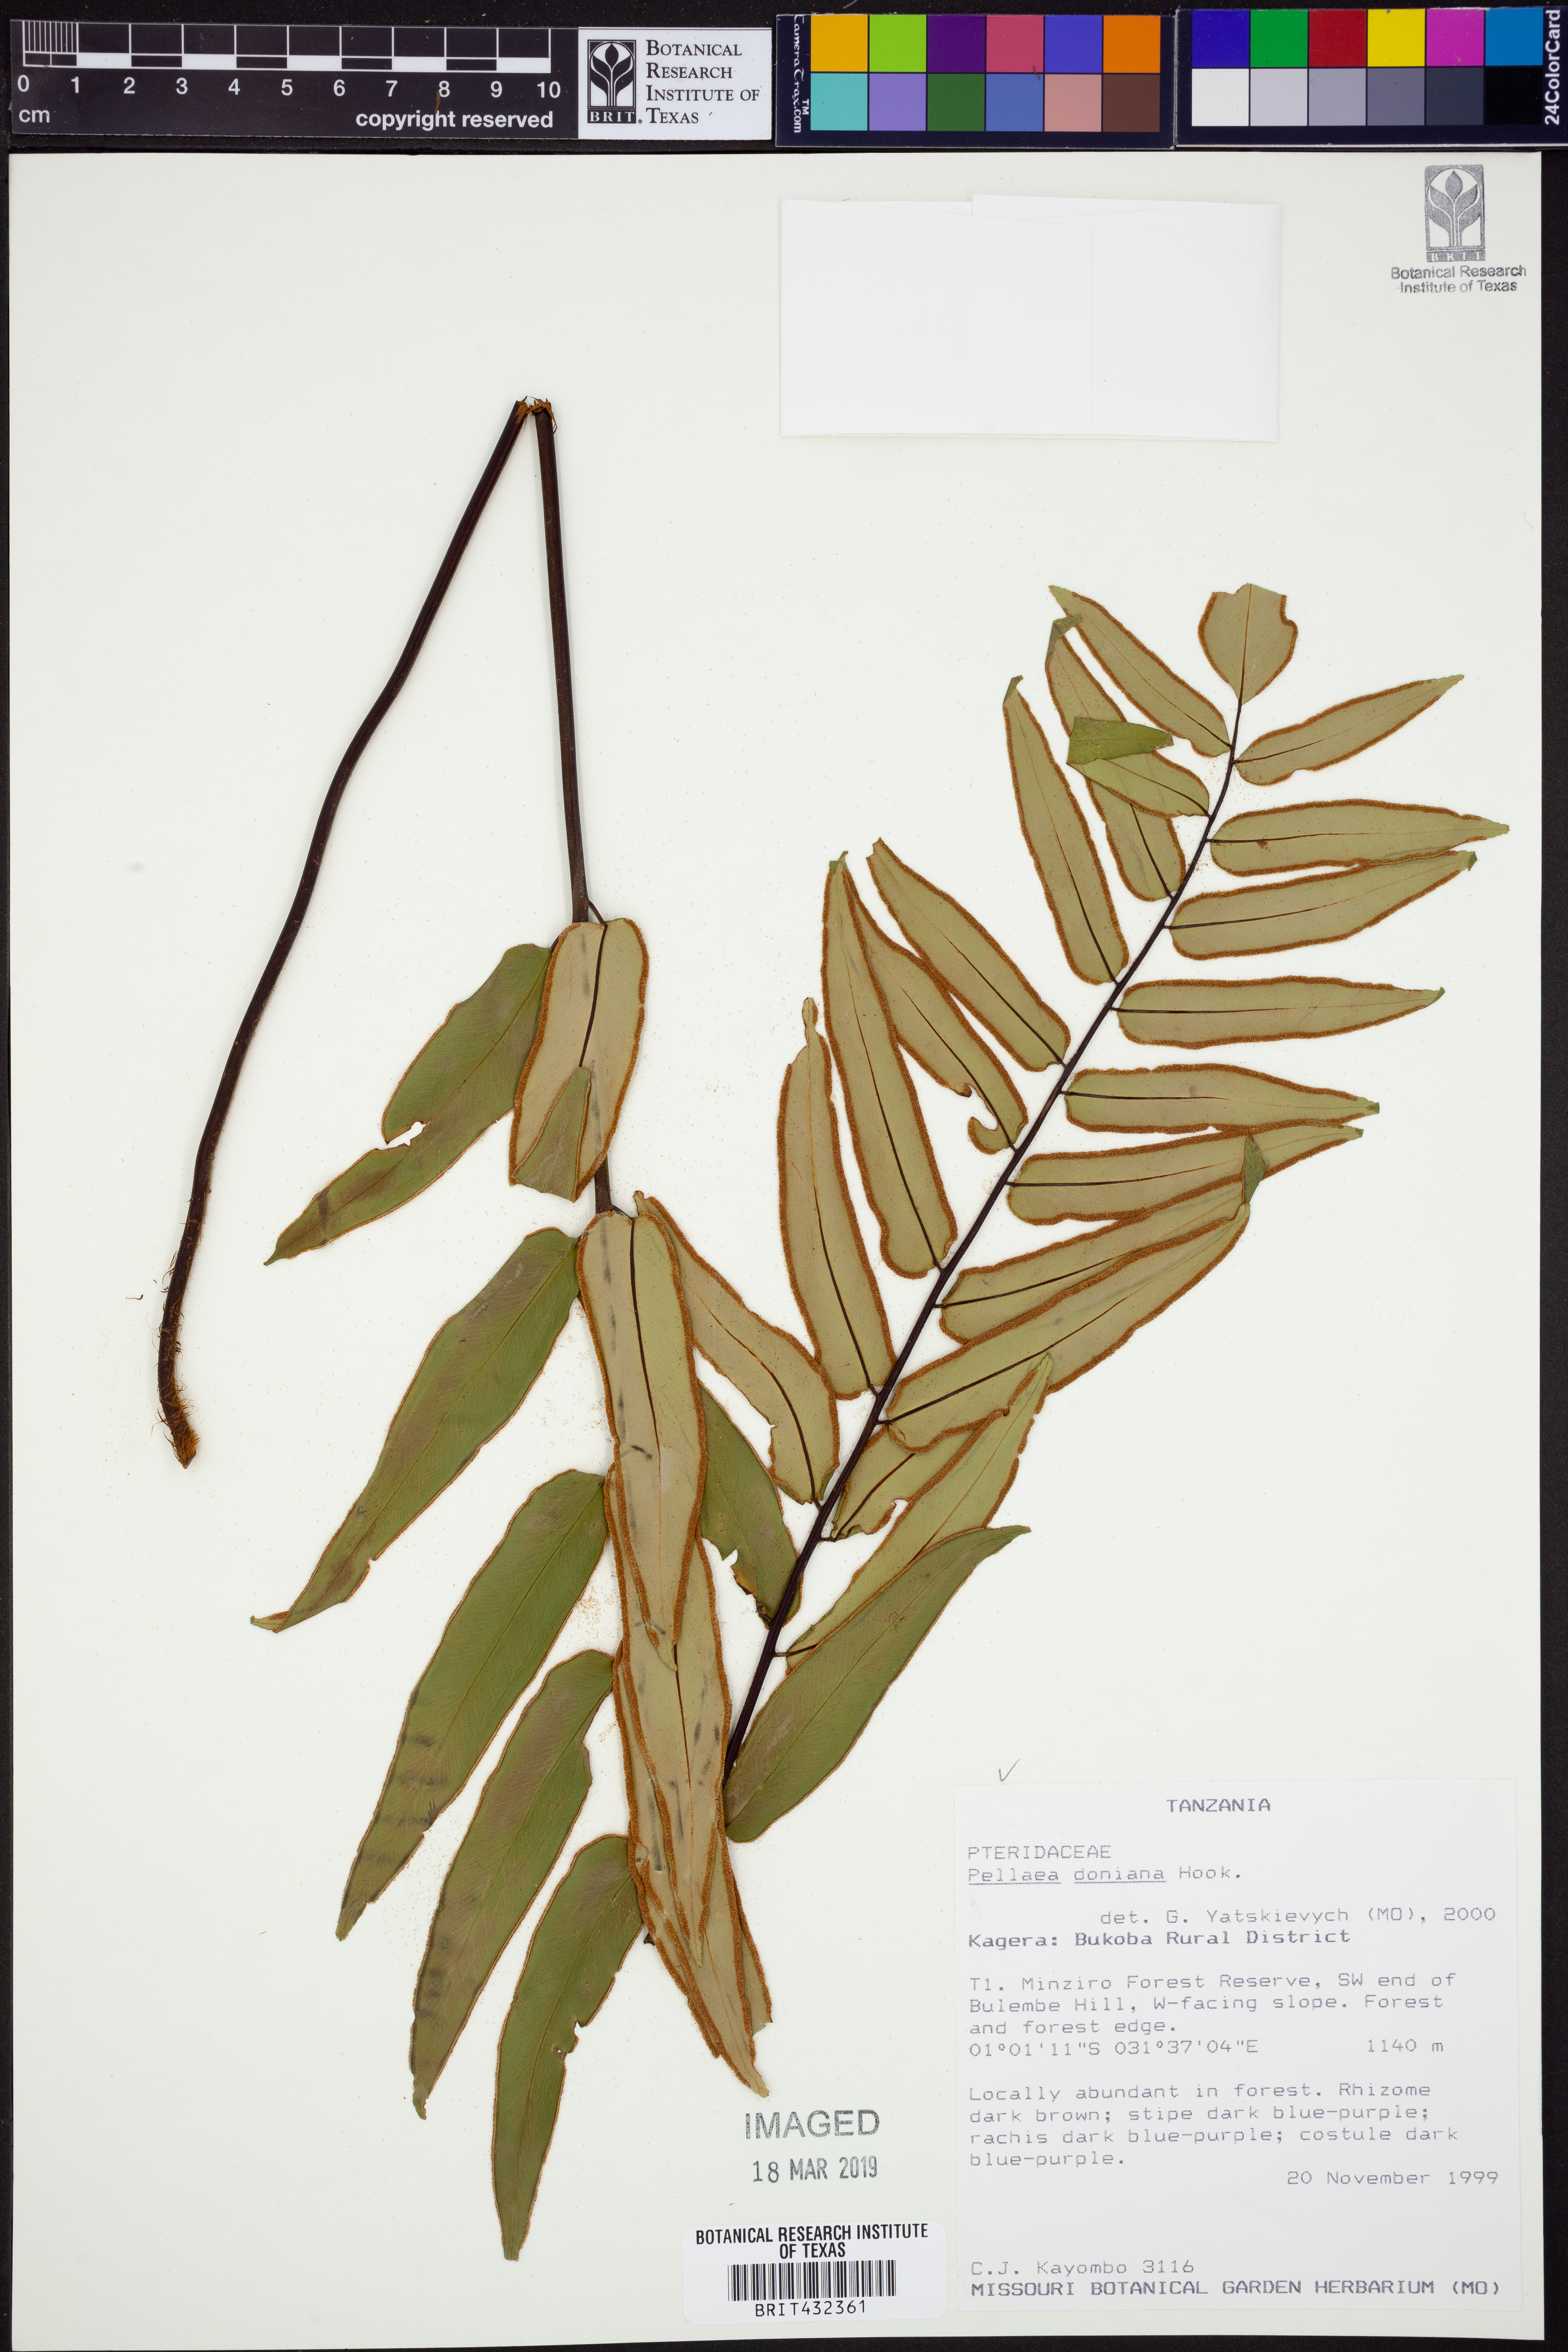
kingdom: Plantae
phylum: Tracheophyta
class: Polypodiopsida
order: Polypodiales
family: Pteridaceae
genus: Pellaea
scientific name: Pellaea doniana
